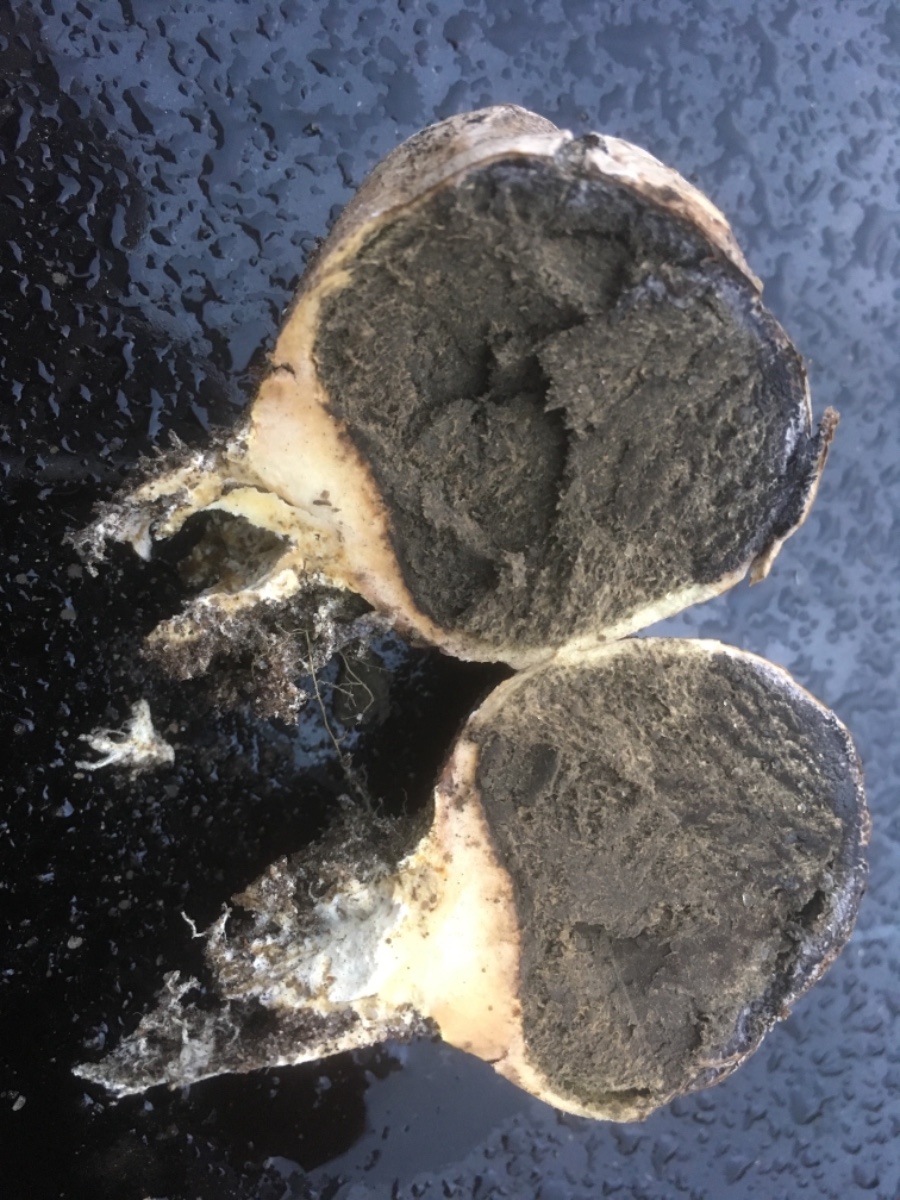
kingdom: Fungi
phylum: Basidiomycota
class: Agaricomycetes
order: Boletales
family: Sclerodermataceae
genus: Scleroderma
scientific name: Scleroderma
